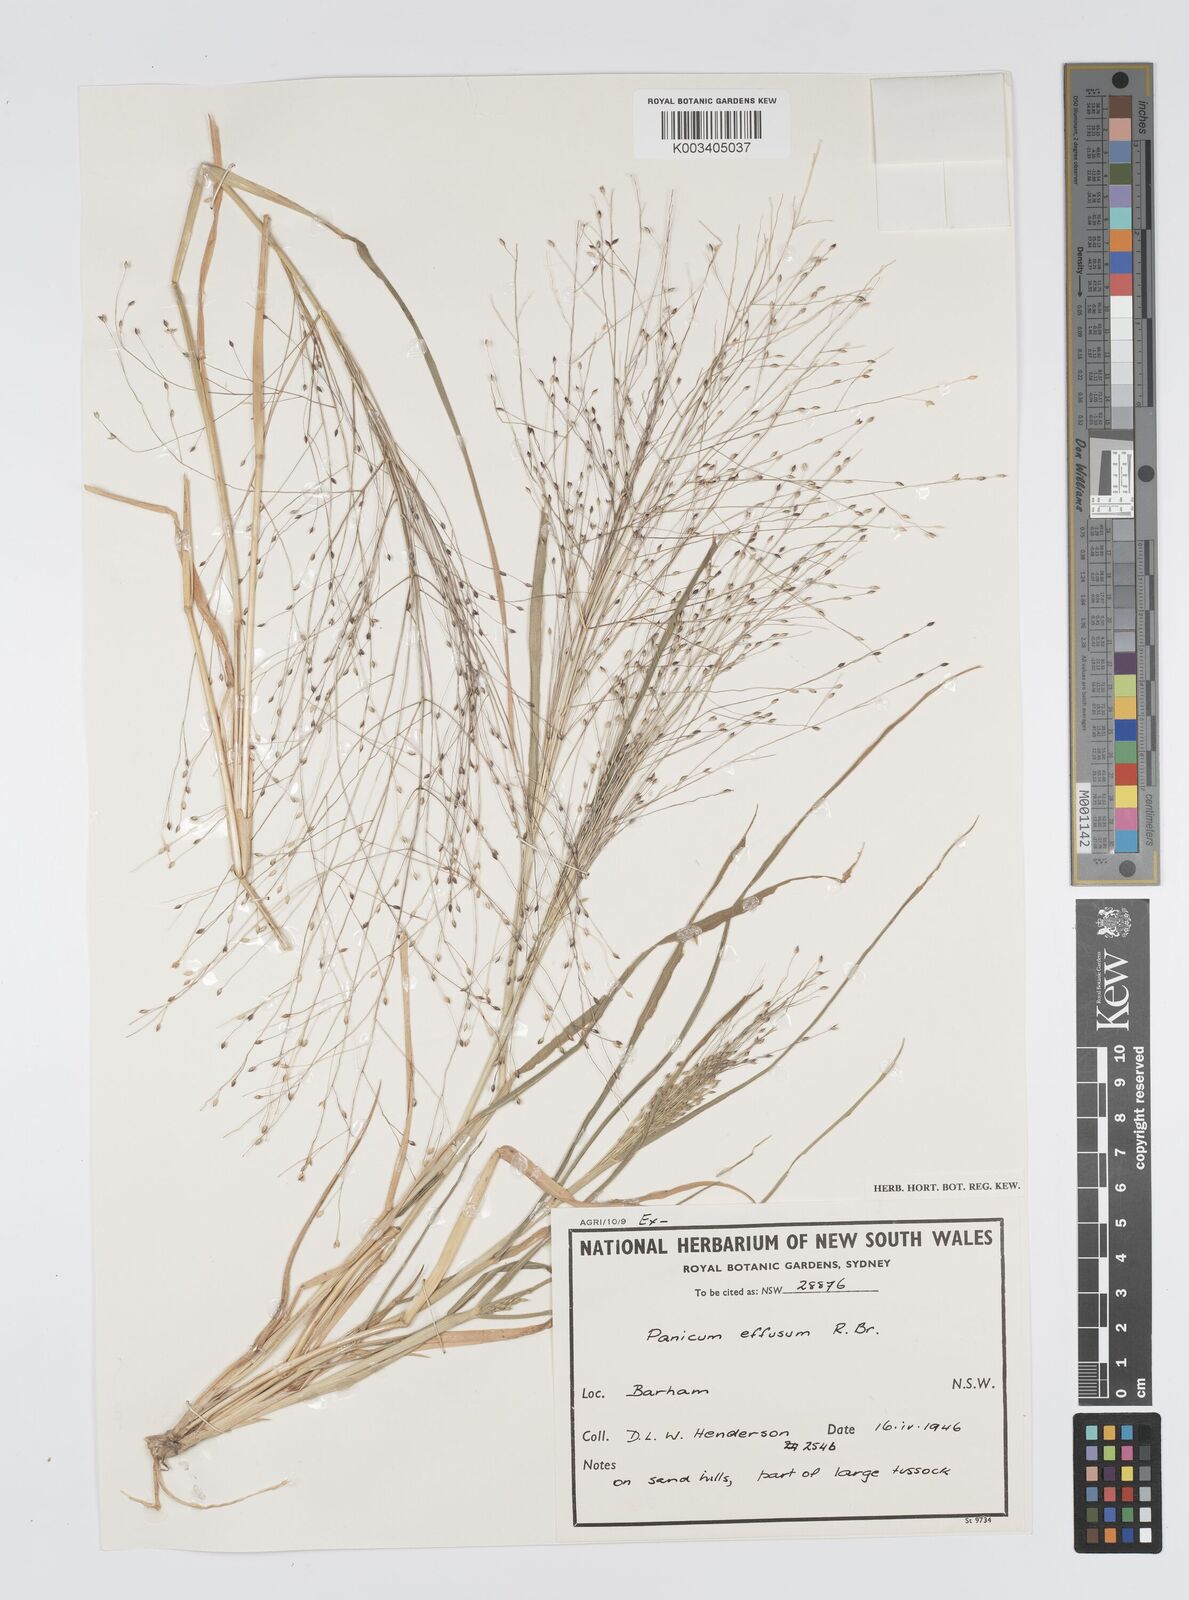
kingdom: Plantae
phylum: Tracheophyta
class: Liliopsida
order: Poales
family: Poaceae
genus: Panicum
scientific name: Panicum effusum
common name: Hairy panic grass
